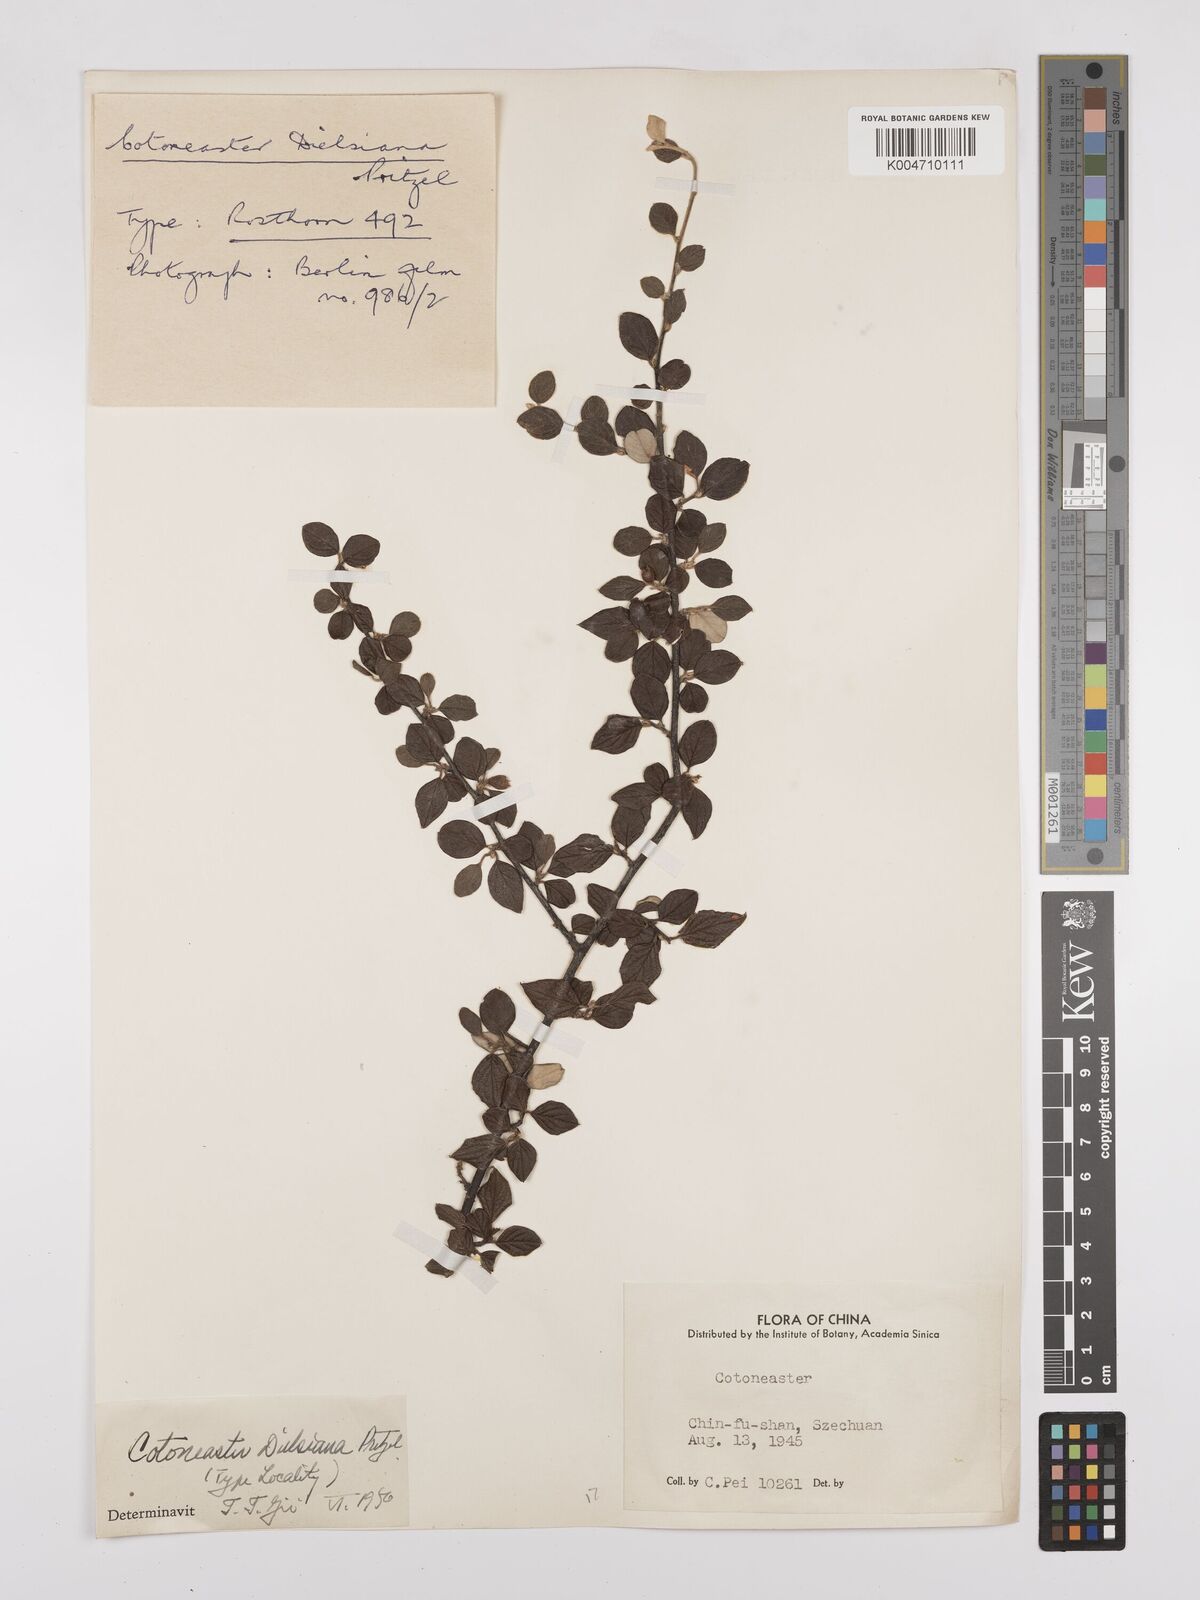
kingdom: Plantae
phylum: Tracheophyta
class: Magnoliopsida
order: Rosales
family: Rosaceae
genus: Cotoneaster
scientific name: Cotoneaster dielsianus
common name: Diels's cotoneaster
